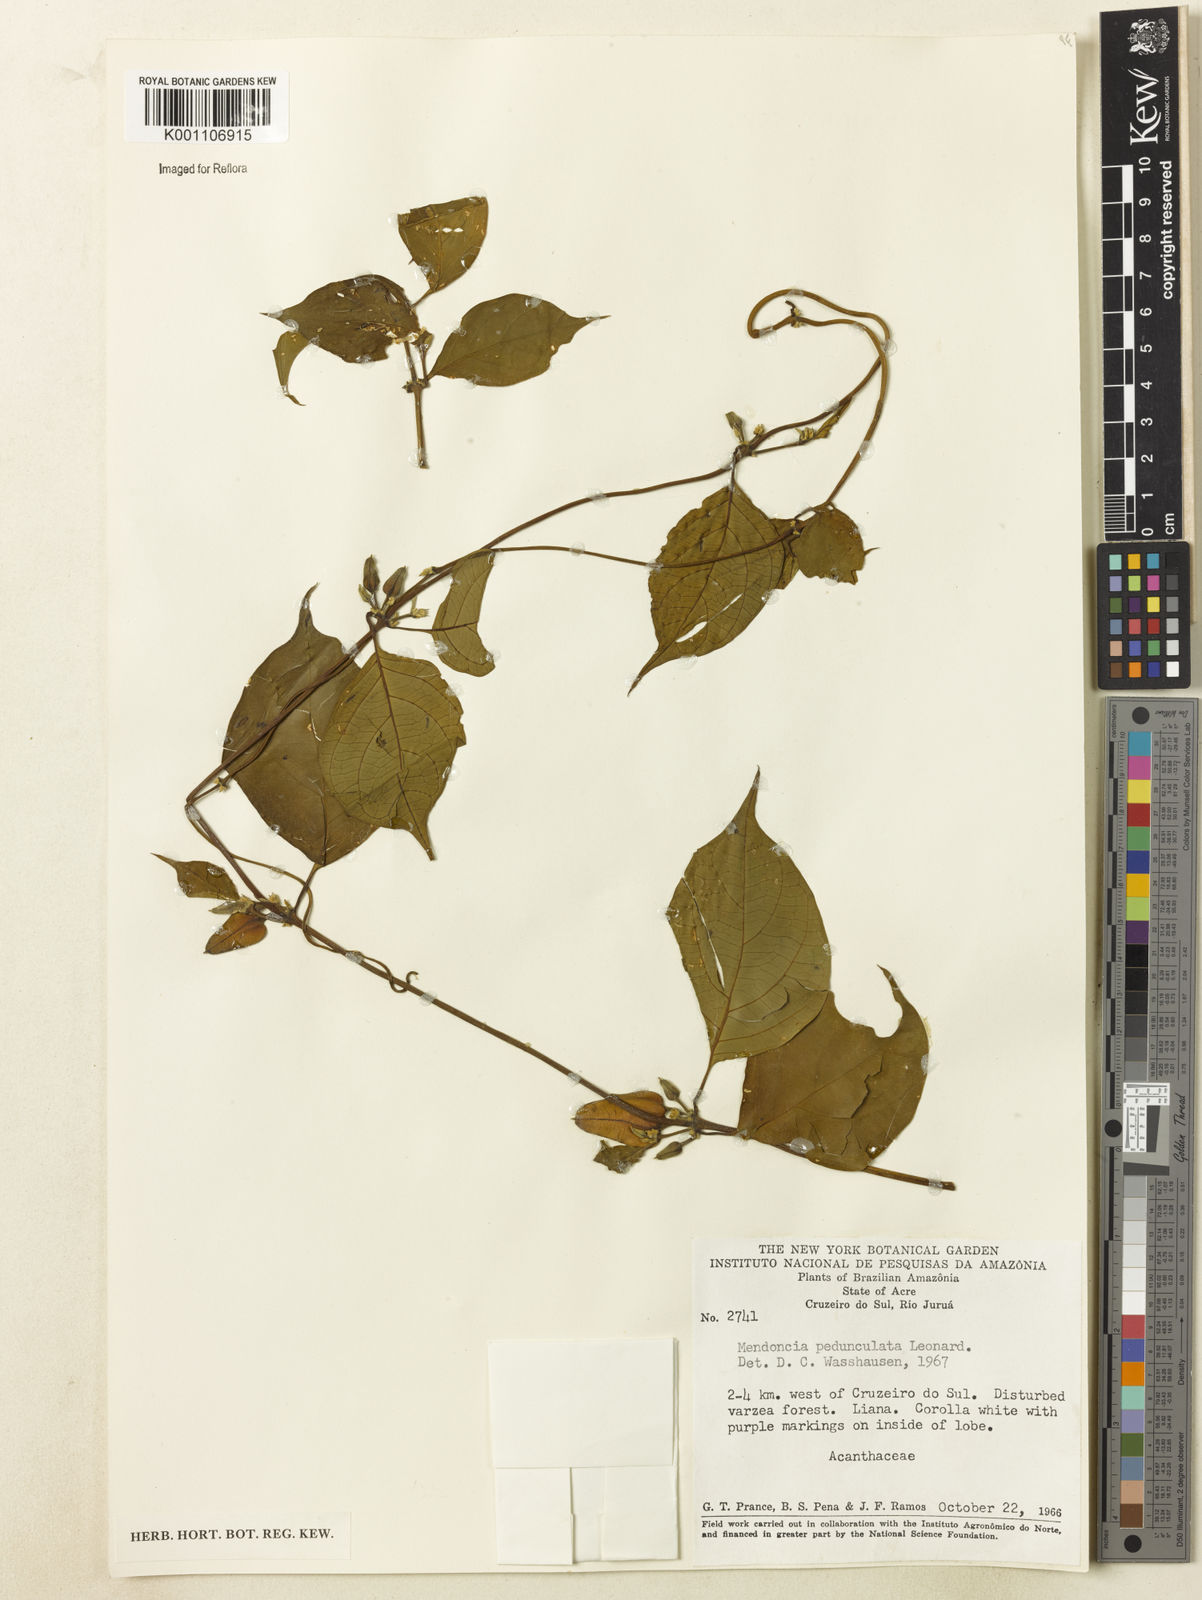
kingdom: Plantae
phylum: Tracheophyta
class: Magnoliopsida
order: Lamiales
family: Acanthaceae
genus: Mendoncia
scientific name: Mendoncia pedunculata
